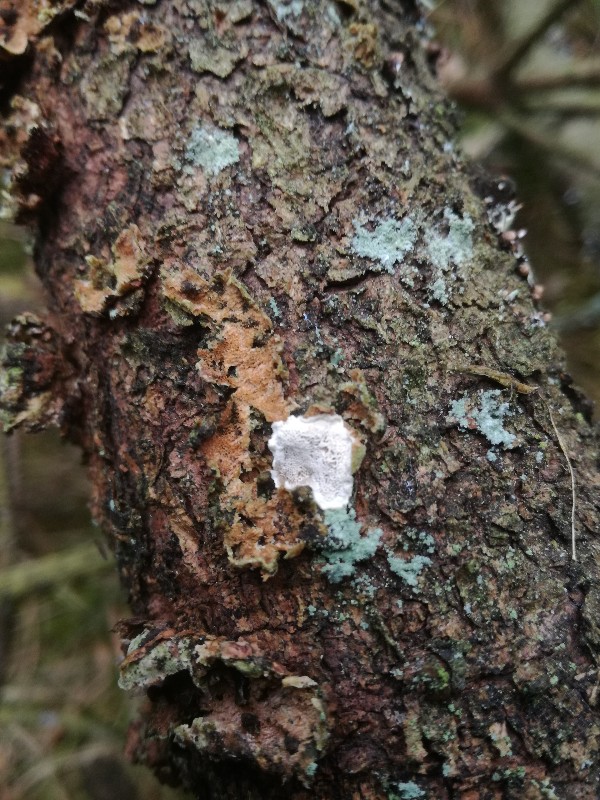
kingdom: Fungi
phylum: Basidiomycota
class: Agaricomycetes
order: Polyporales
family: Incrustoporiaceae
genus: Skeletocutis
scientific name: Skeletocutis carneogrisea
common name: rødgrå krystalporesvamp
